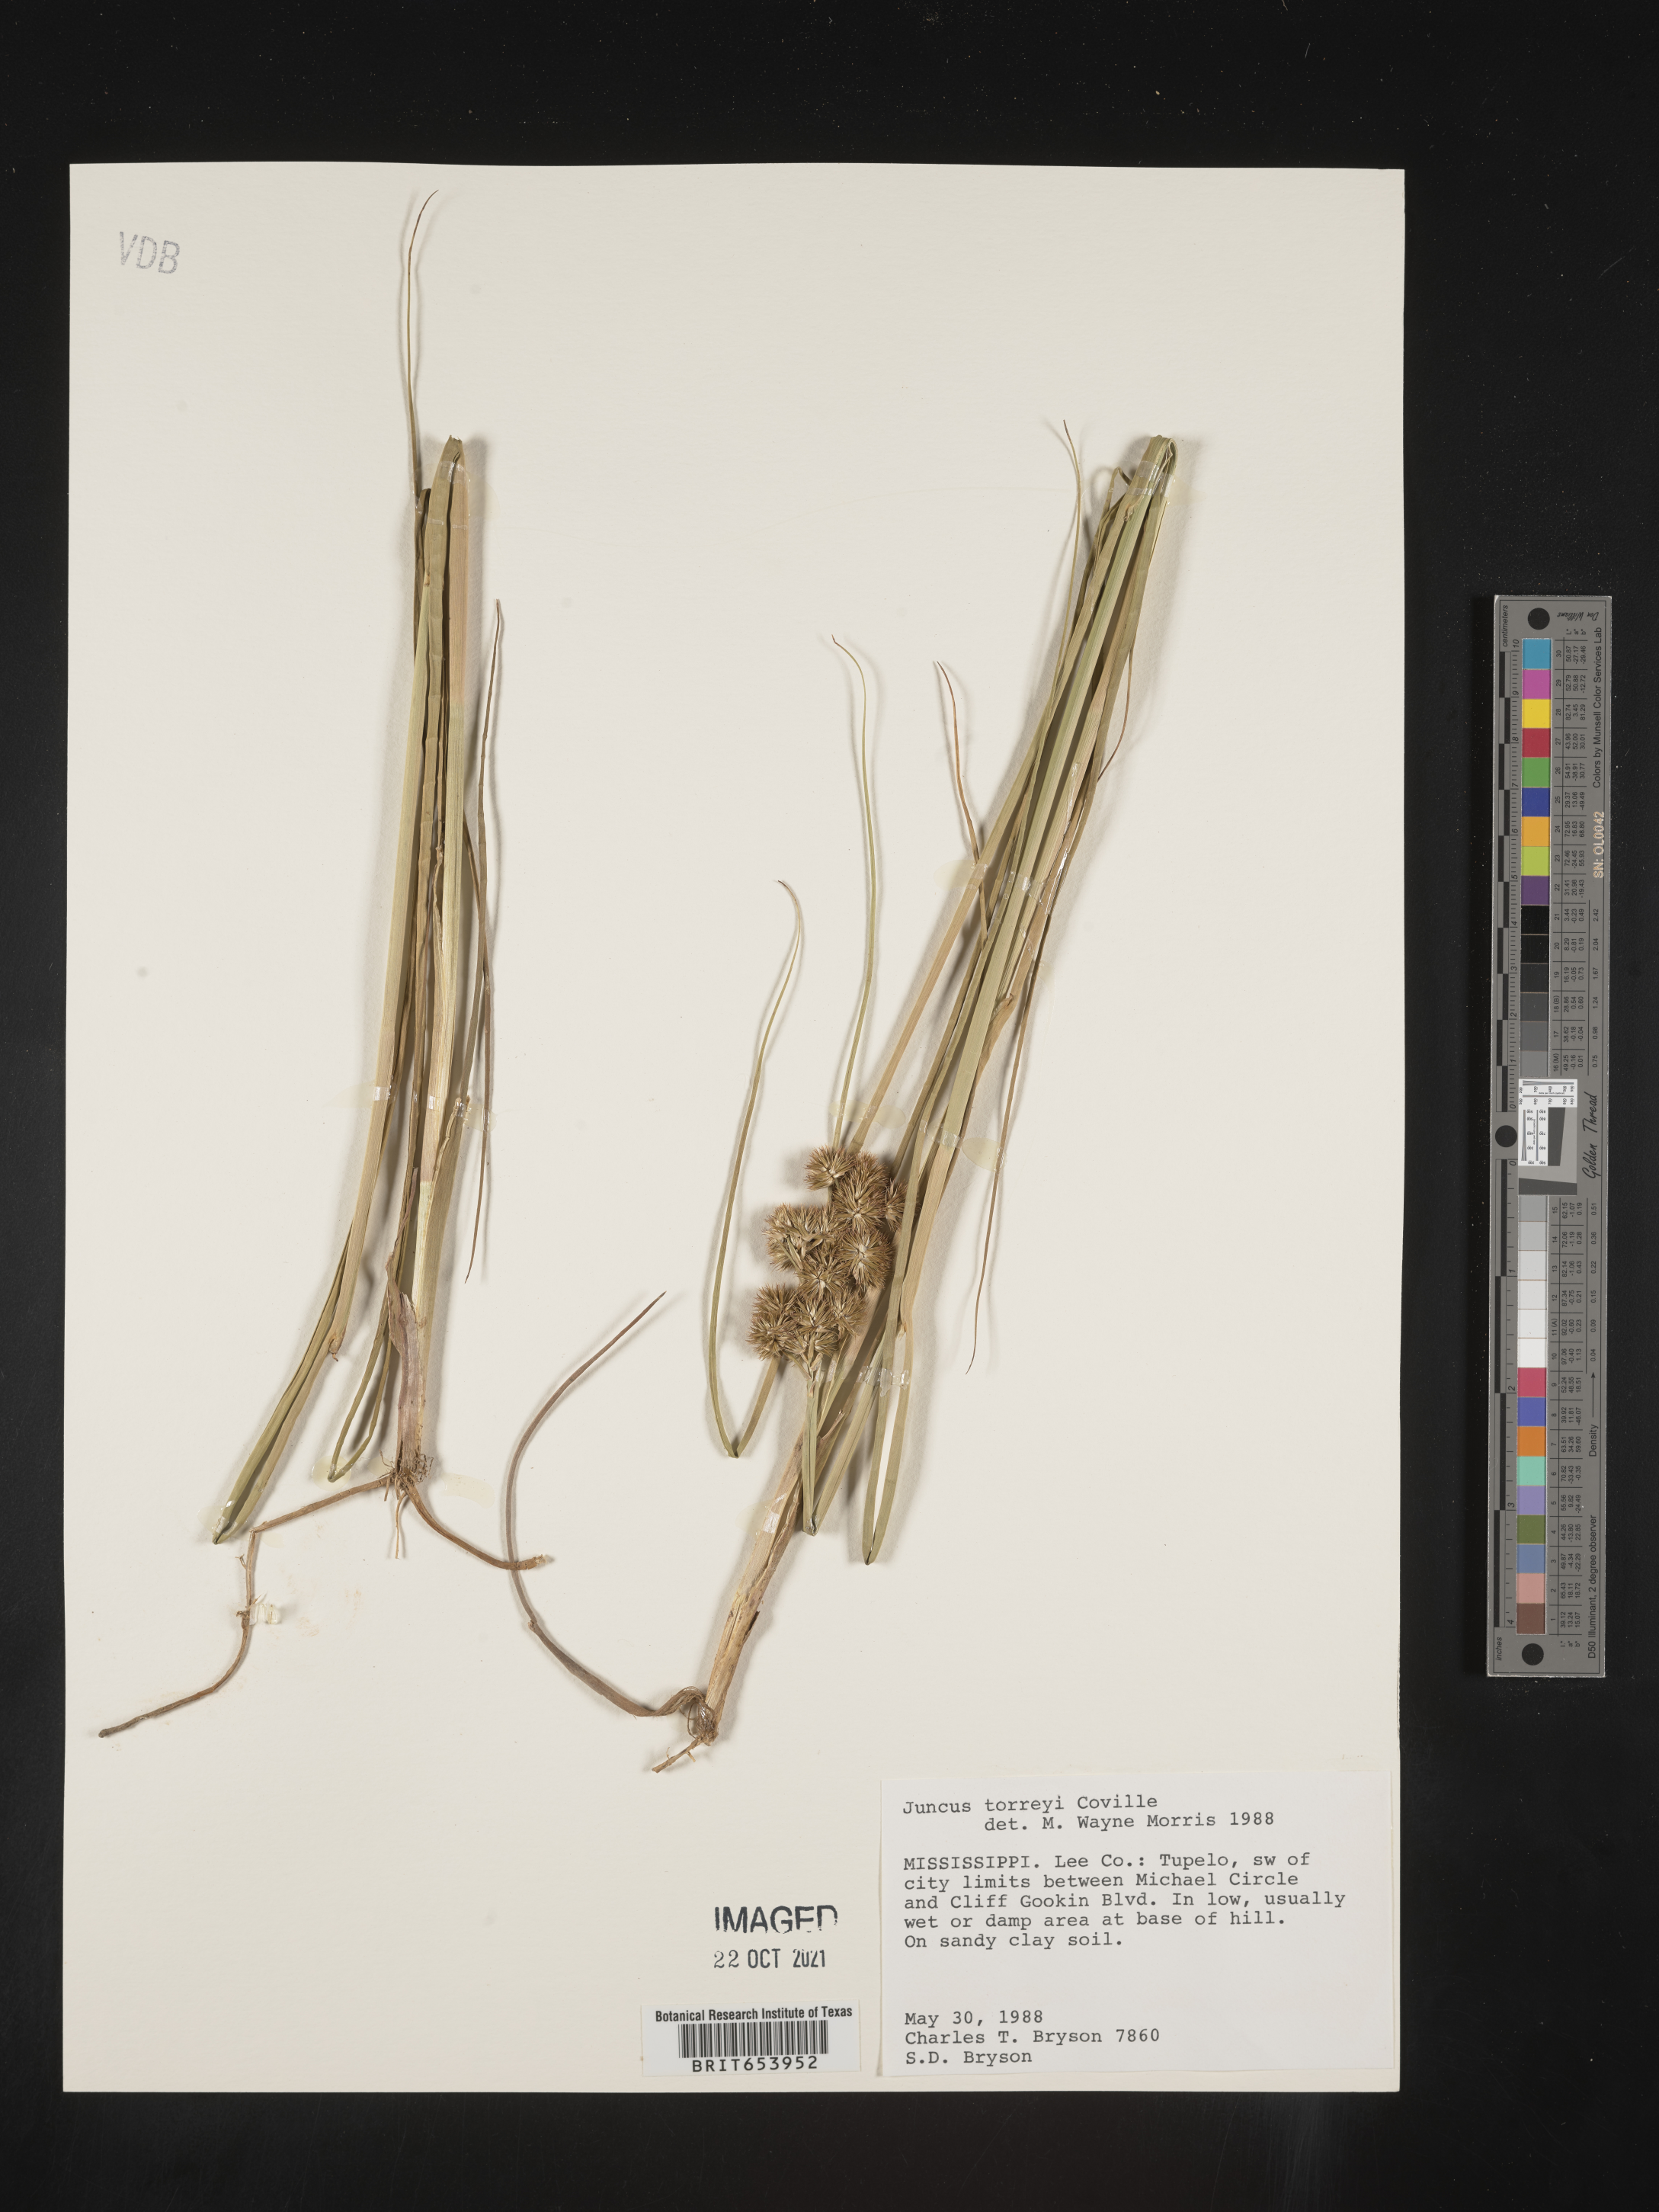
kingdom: Plantae
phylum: Tracheophyta
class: Liliopsida
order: Poales
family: Juncaceae
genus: Juncus
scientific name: Juncus torreyi
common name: Torrey's rush
